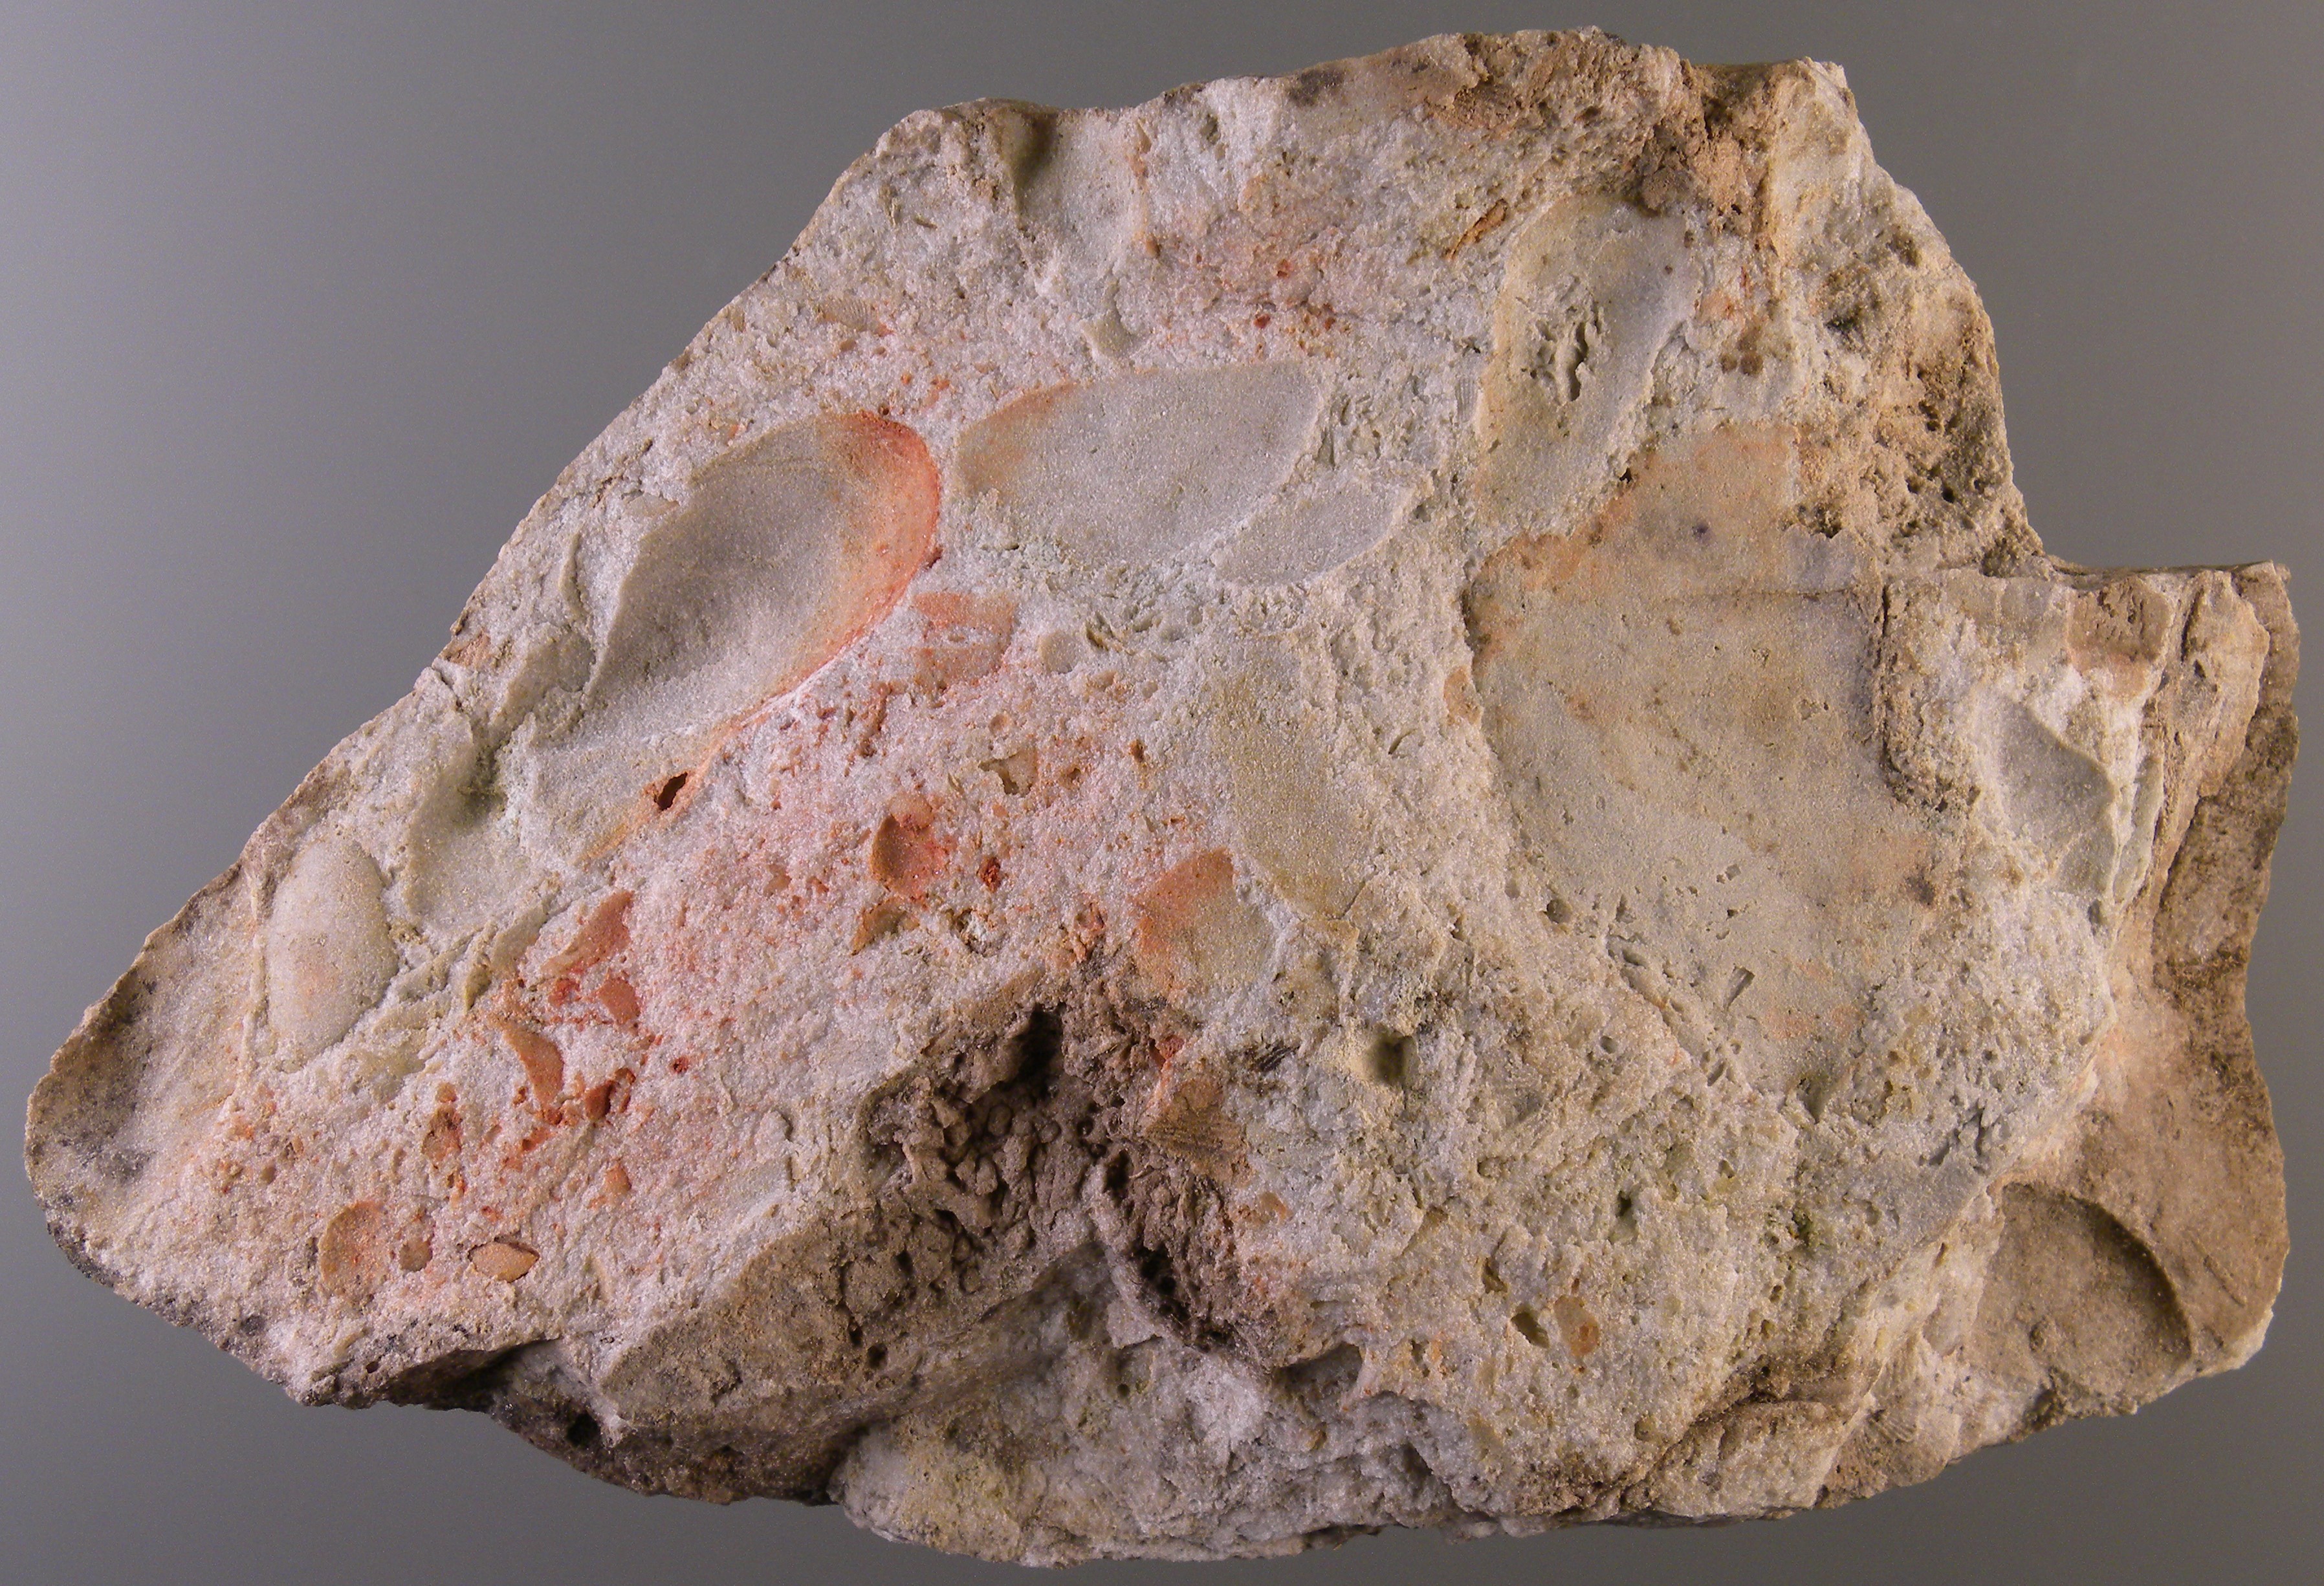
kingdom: Animalia
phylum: Mollusca
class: Bivalvia
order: Modiomorphida
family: Modiomorphidae
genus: Modiomorpha
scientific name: Modiomorpha
